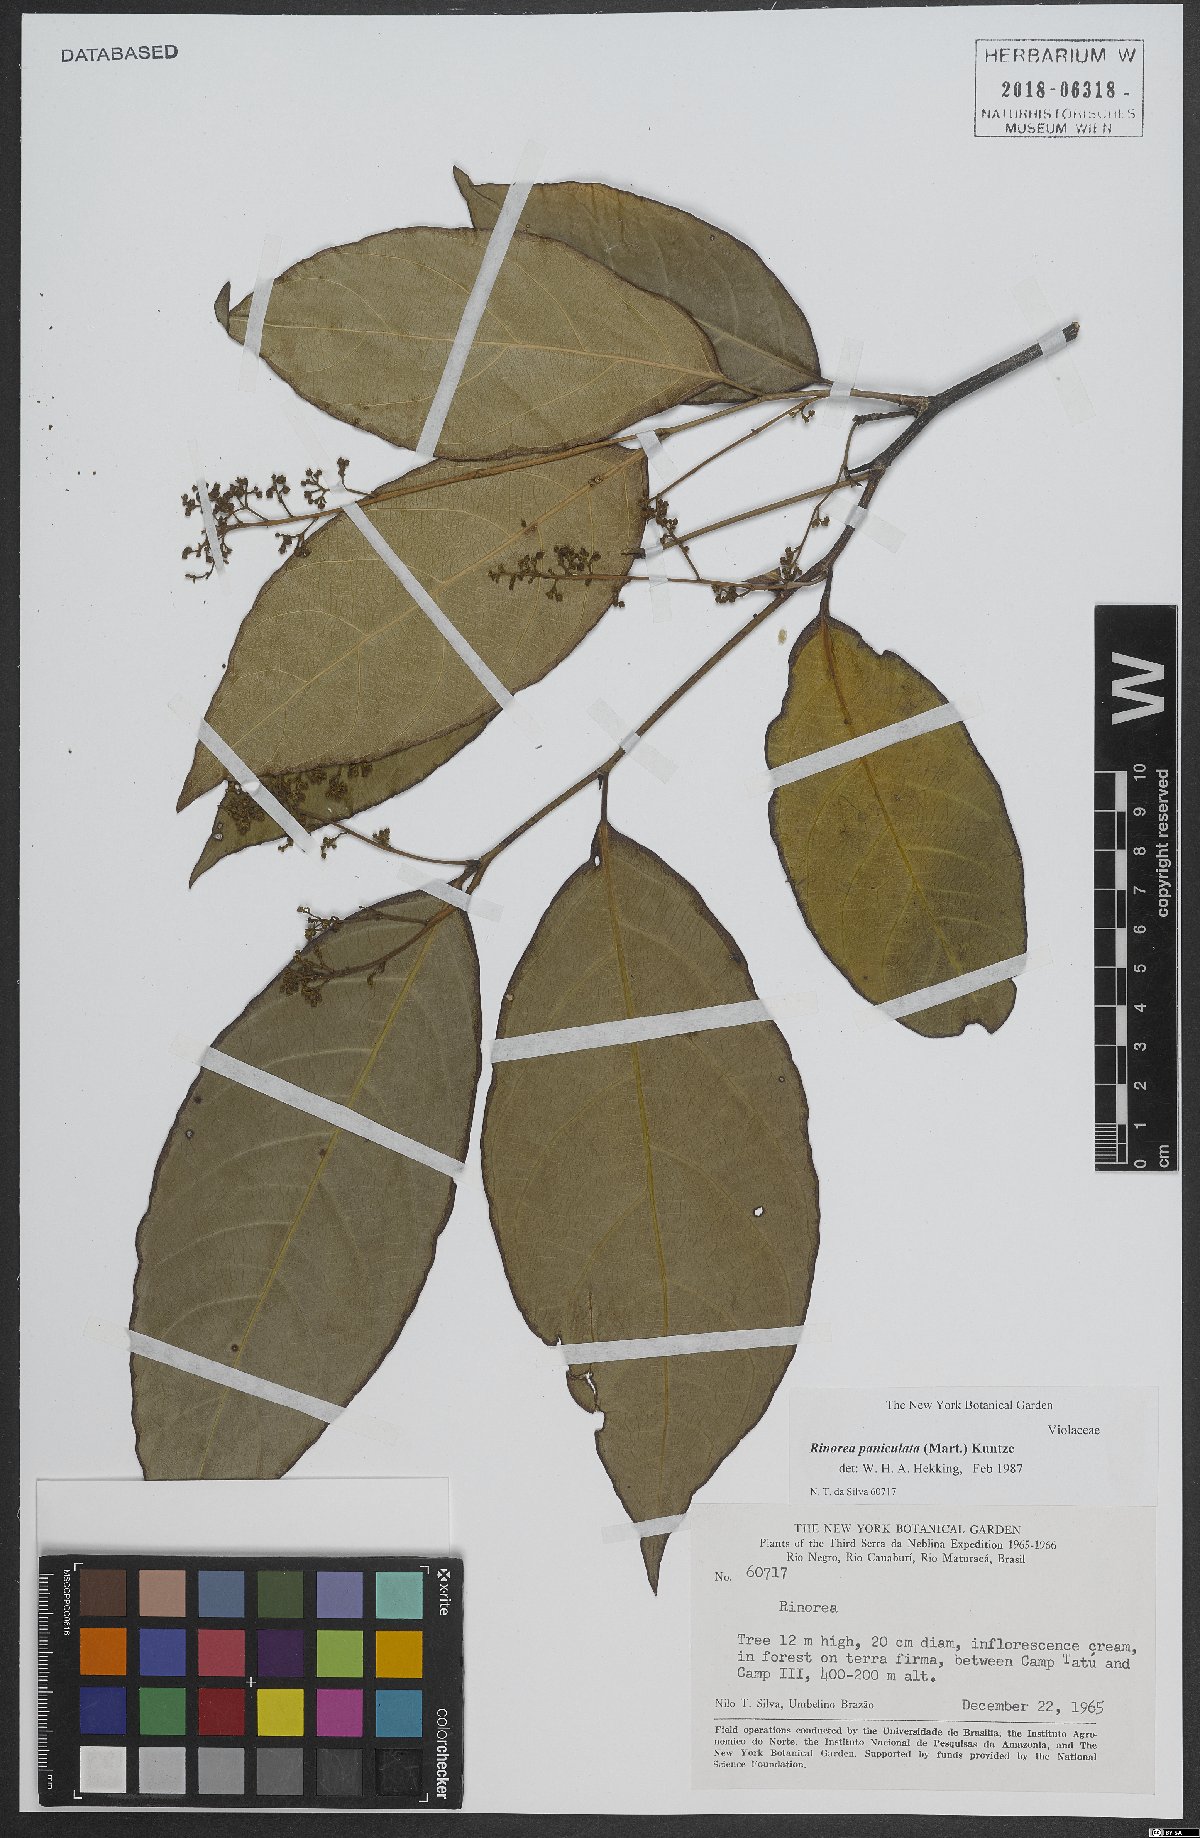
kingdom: Plantae
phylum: Tracheophyta
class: Magnoliopsida
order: Malpighiales
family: Violaceae
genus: Rinorea
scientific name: Rinorea paniculata
